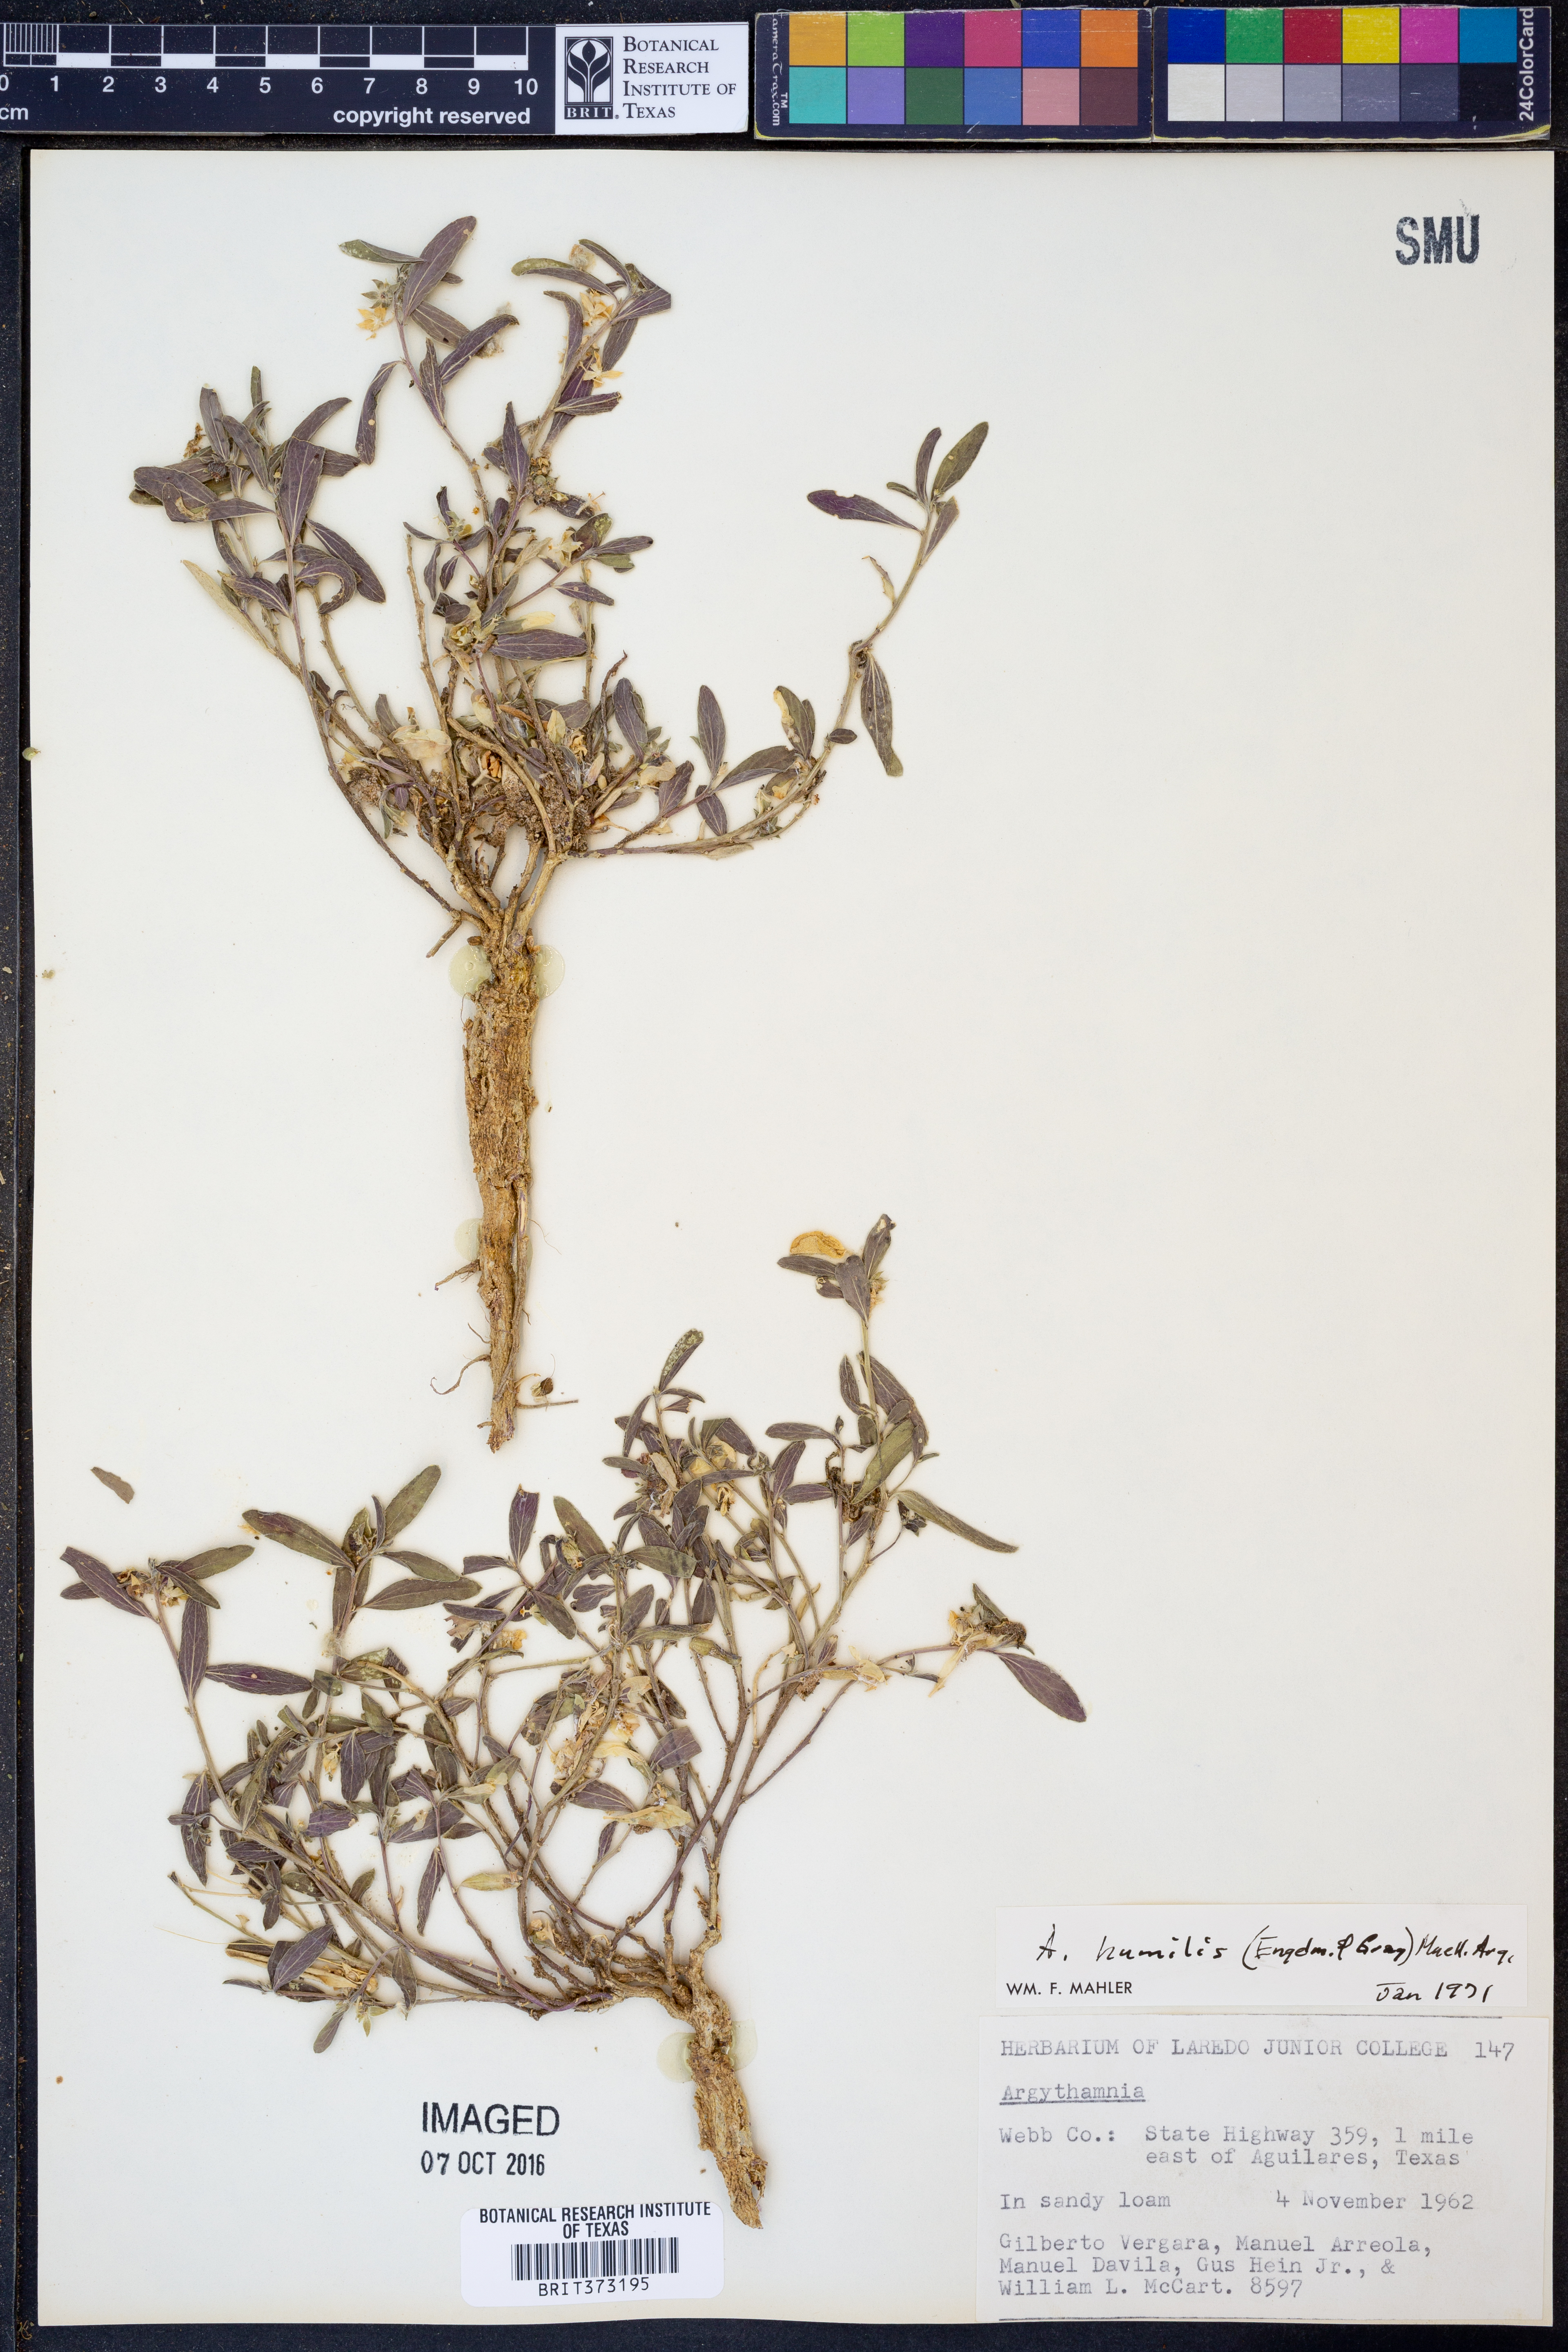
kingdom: Plantae
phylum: Tracheophyta
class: Magnoliopsida
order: Malpighiales
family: Euphorbiaceae
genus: Ditaxis
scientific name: Ditaxis humilis
